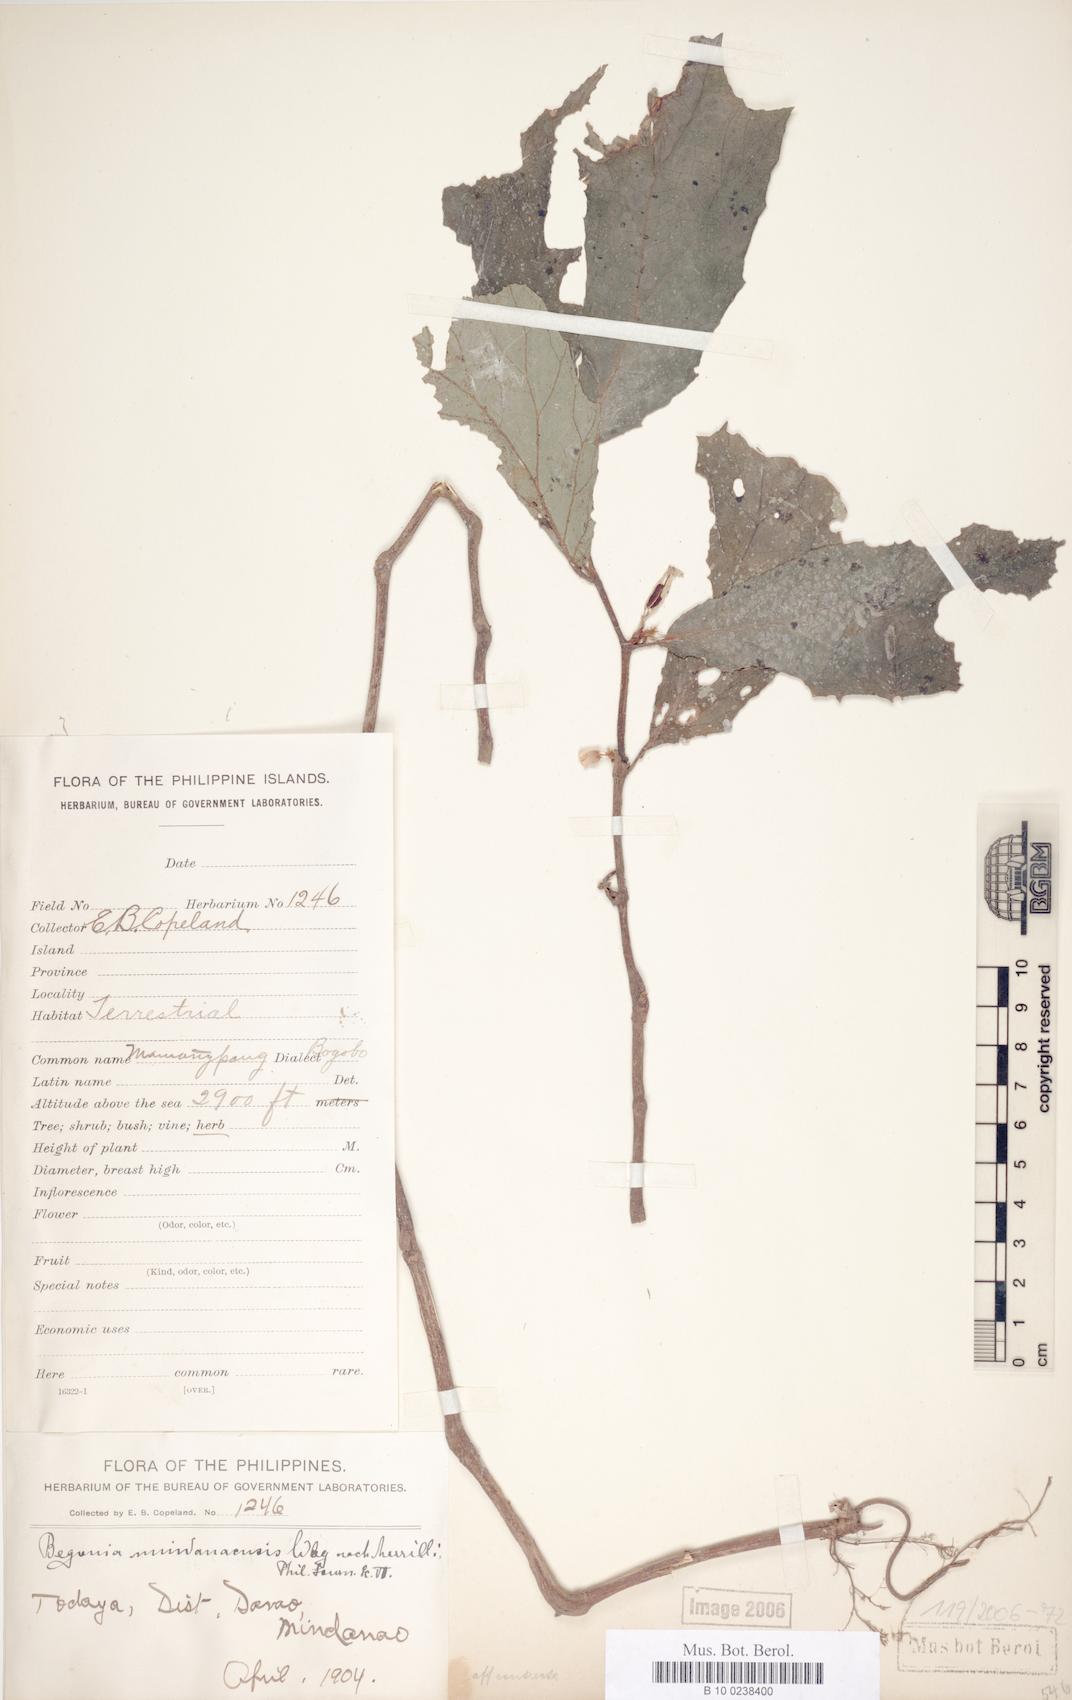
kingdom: Plantae
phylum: Tracheophyta
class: Magnoliopsida
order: Cucurbitales
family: Begoniaceae
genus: Begonia
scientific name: Begonia mindanaensis
